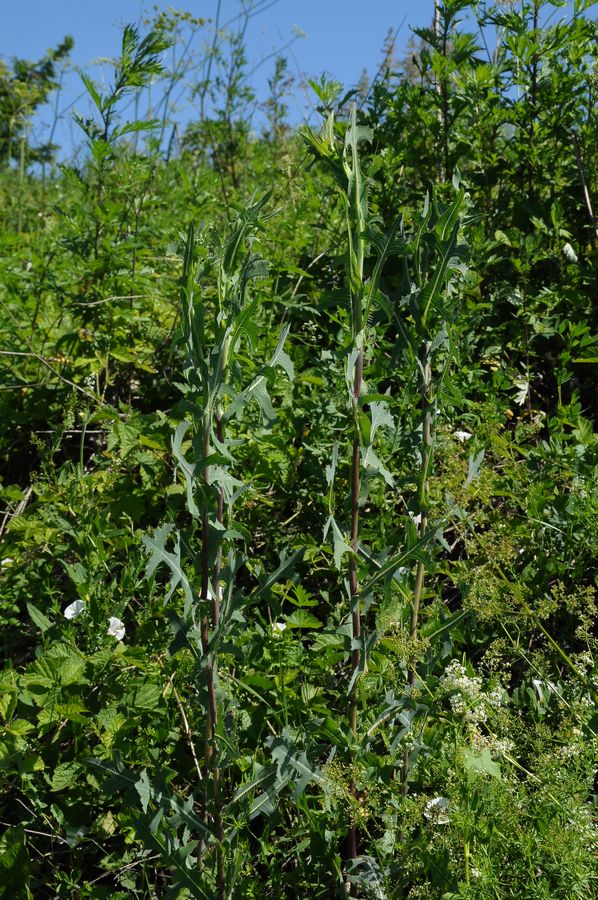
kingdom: Plantae
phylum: Tracheophyta
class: Magnoliopsida
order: Asterales
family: Asteraceae
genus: Lactuca
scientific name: Lactuca serriola
